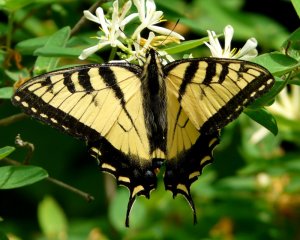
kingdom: Animalia
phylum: Arthropoda
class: Insecta
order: Lepidoptera
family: Papilionidae
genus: Pterourus
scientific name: Pterourus canadensis
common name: Canadian Tiger Swallowtail
